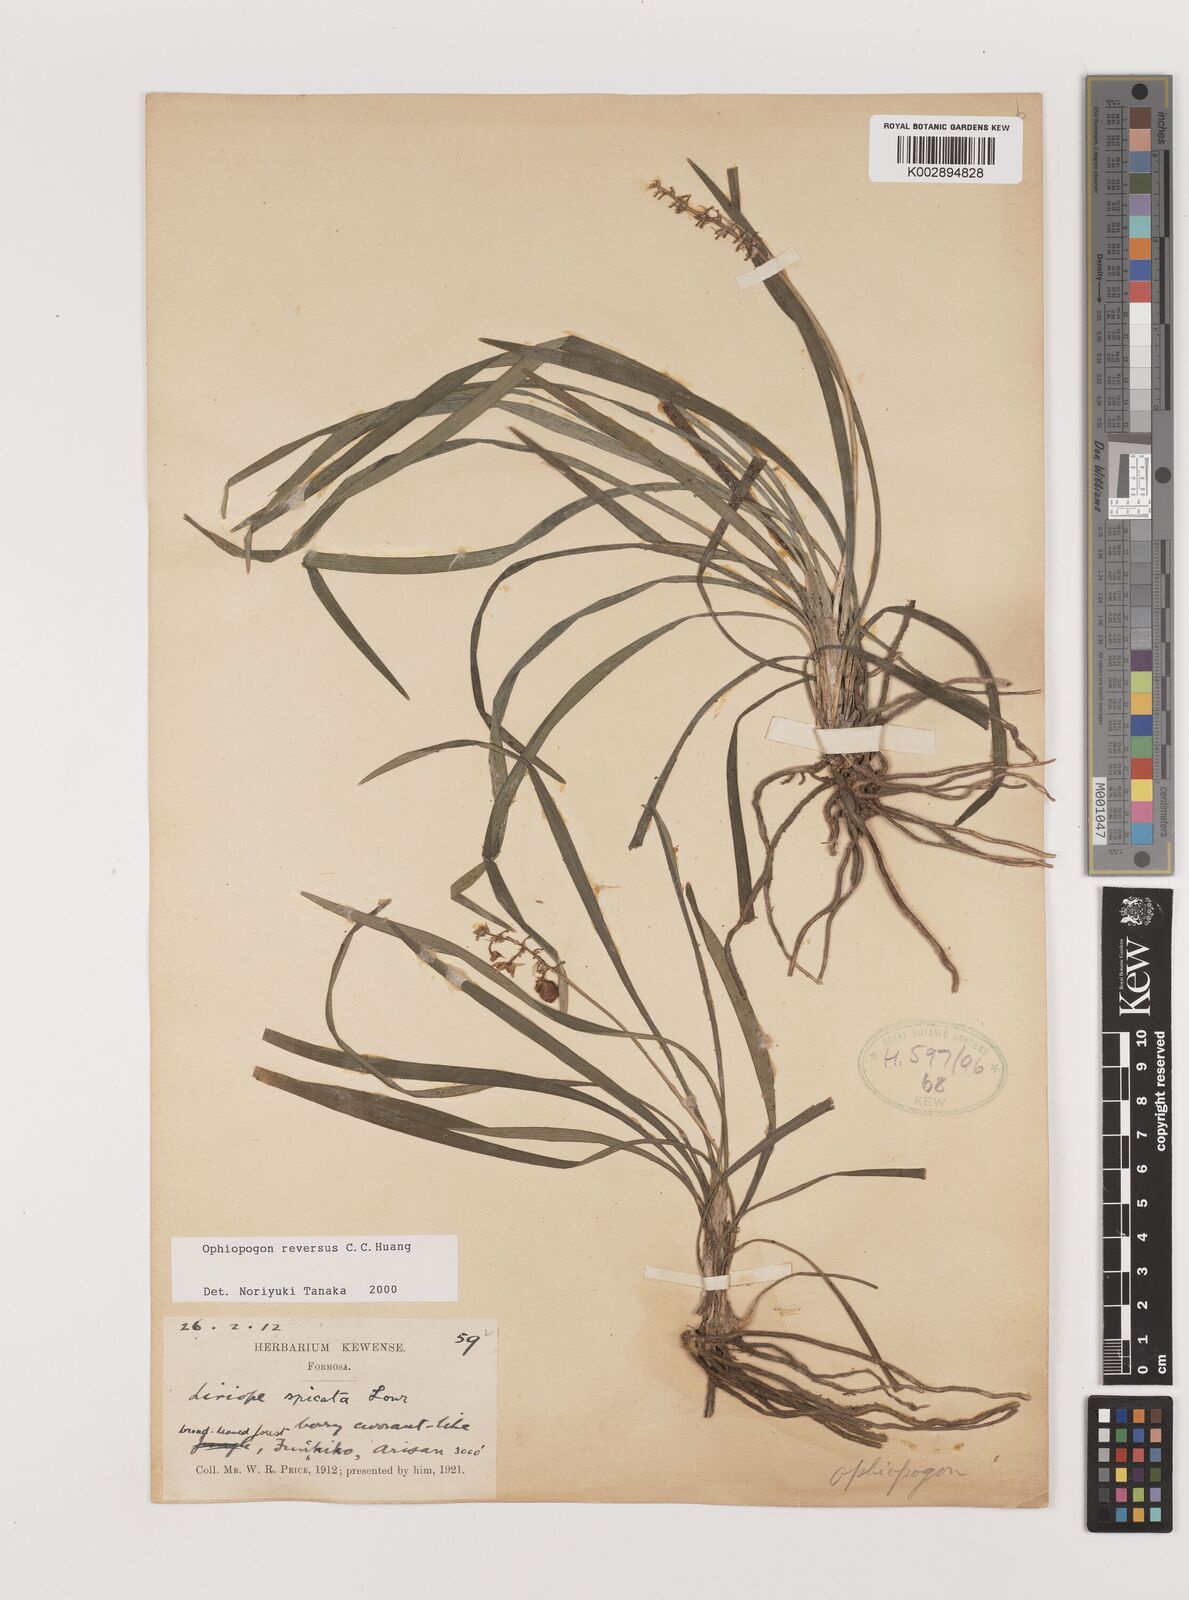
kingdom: Plantae
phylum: Tracheophyta
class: Liliopsida
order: Asparagales
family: Asparagaceae
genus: Ophiopogon
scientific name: Ophiopogon reversus
